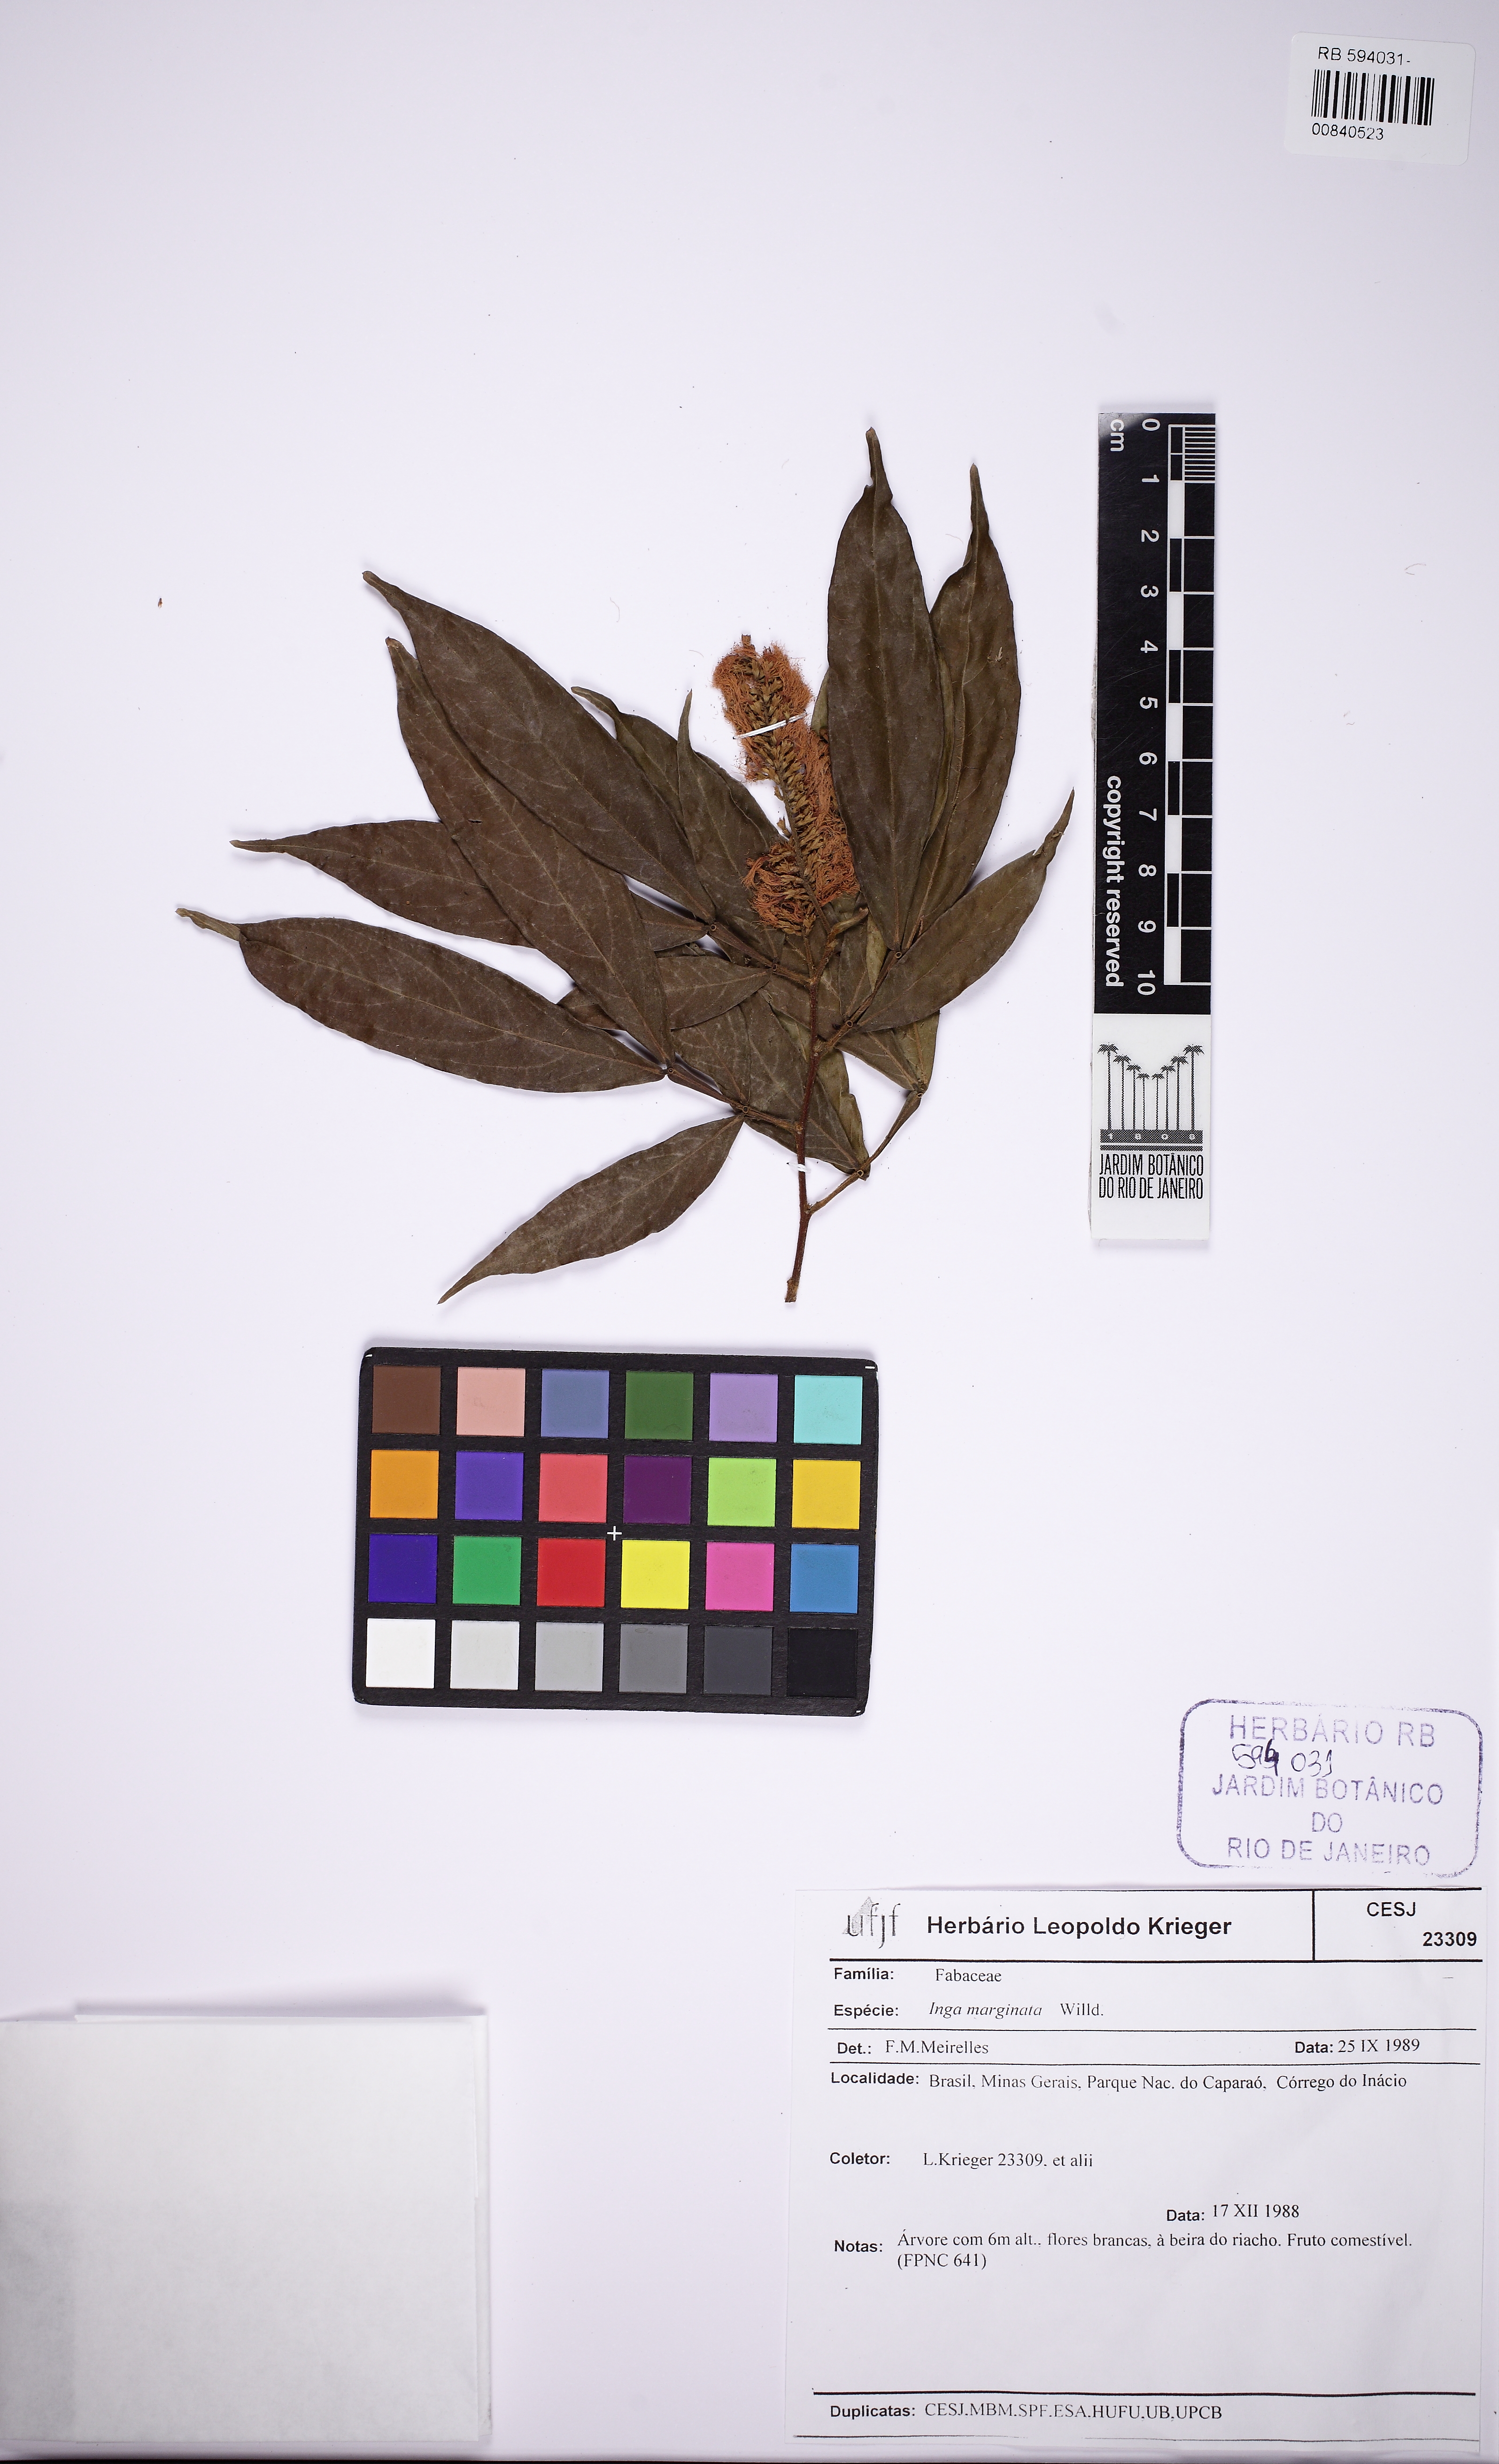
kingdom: Plantae
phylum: Tracheophyta
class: Magnoliopsida
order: Fabales
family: Fabaceae
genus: Inga
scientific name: Inga marginata
